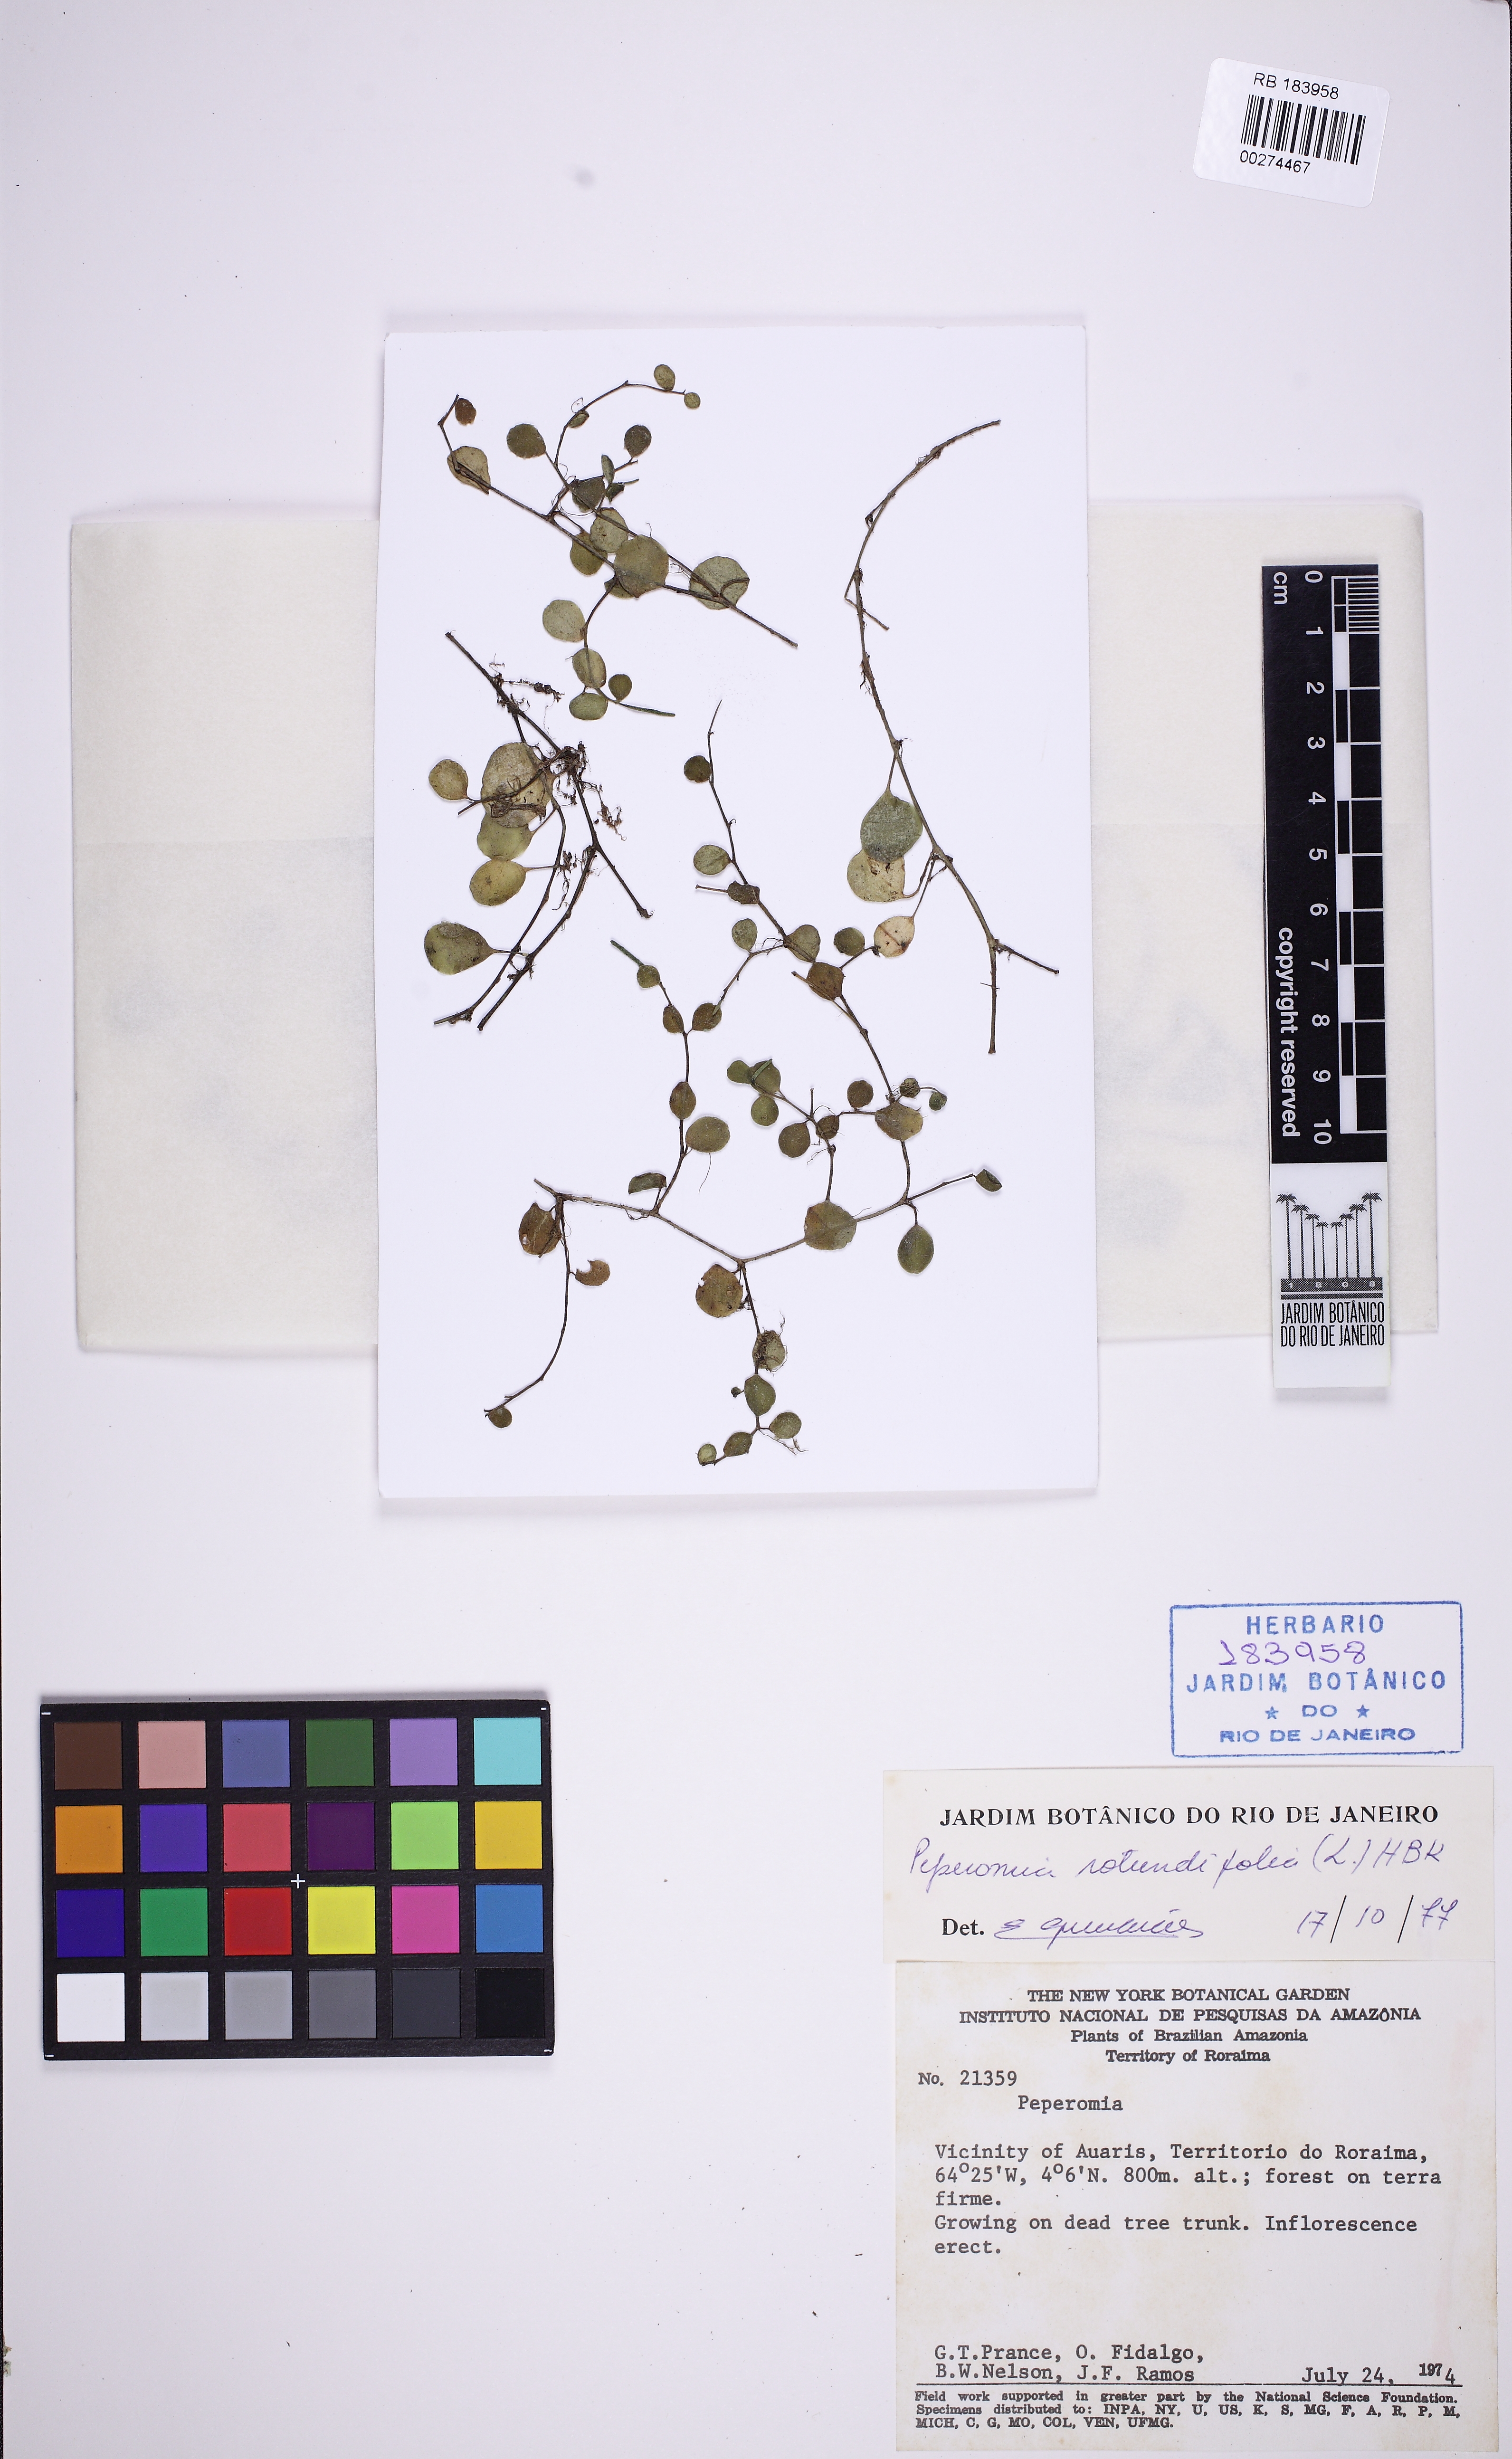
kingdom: Plantae
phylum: Tracheophyta
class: Magnoliopsida
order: Piperales
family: Piperaceae
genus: Peperomia
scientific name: Peperomia rotundifolia
